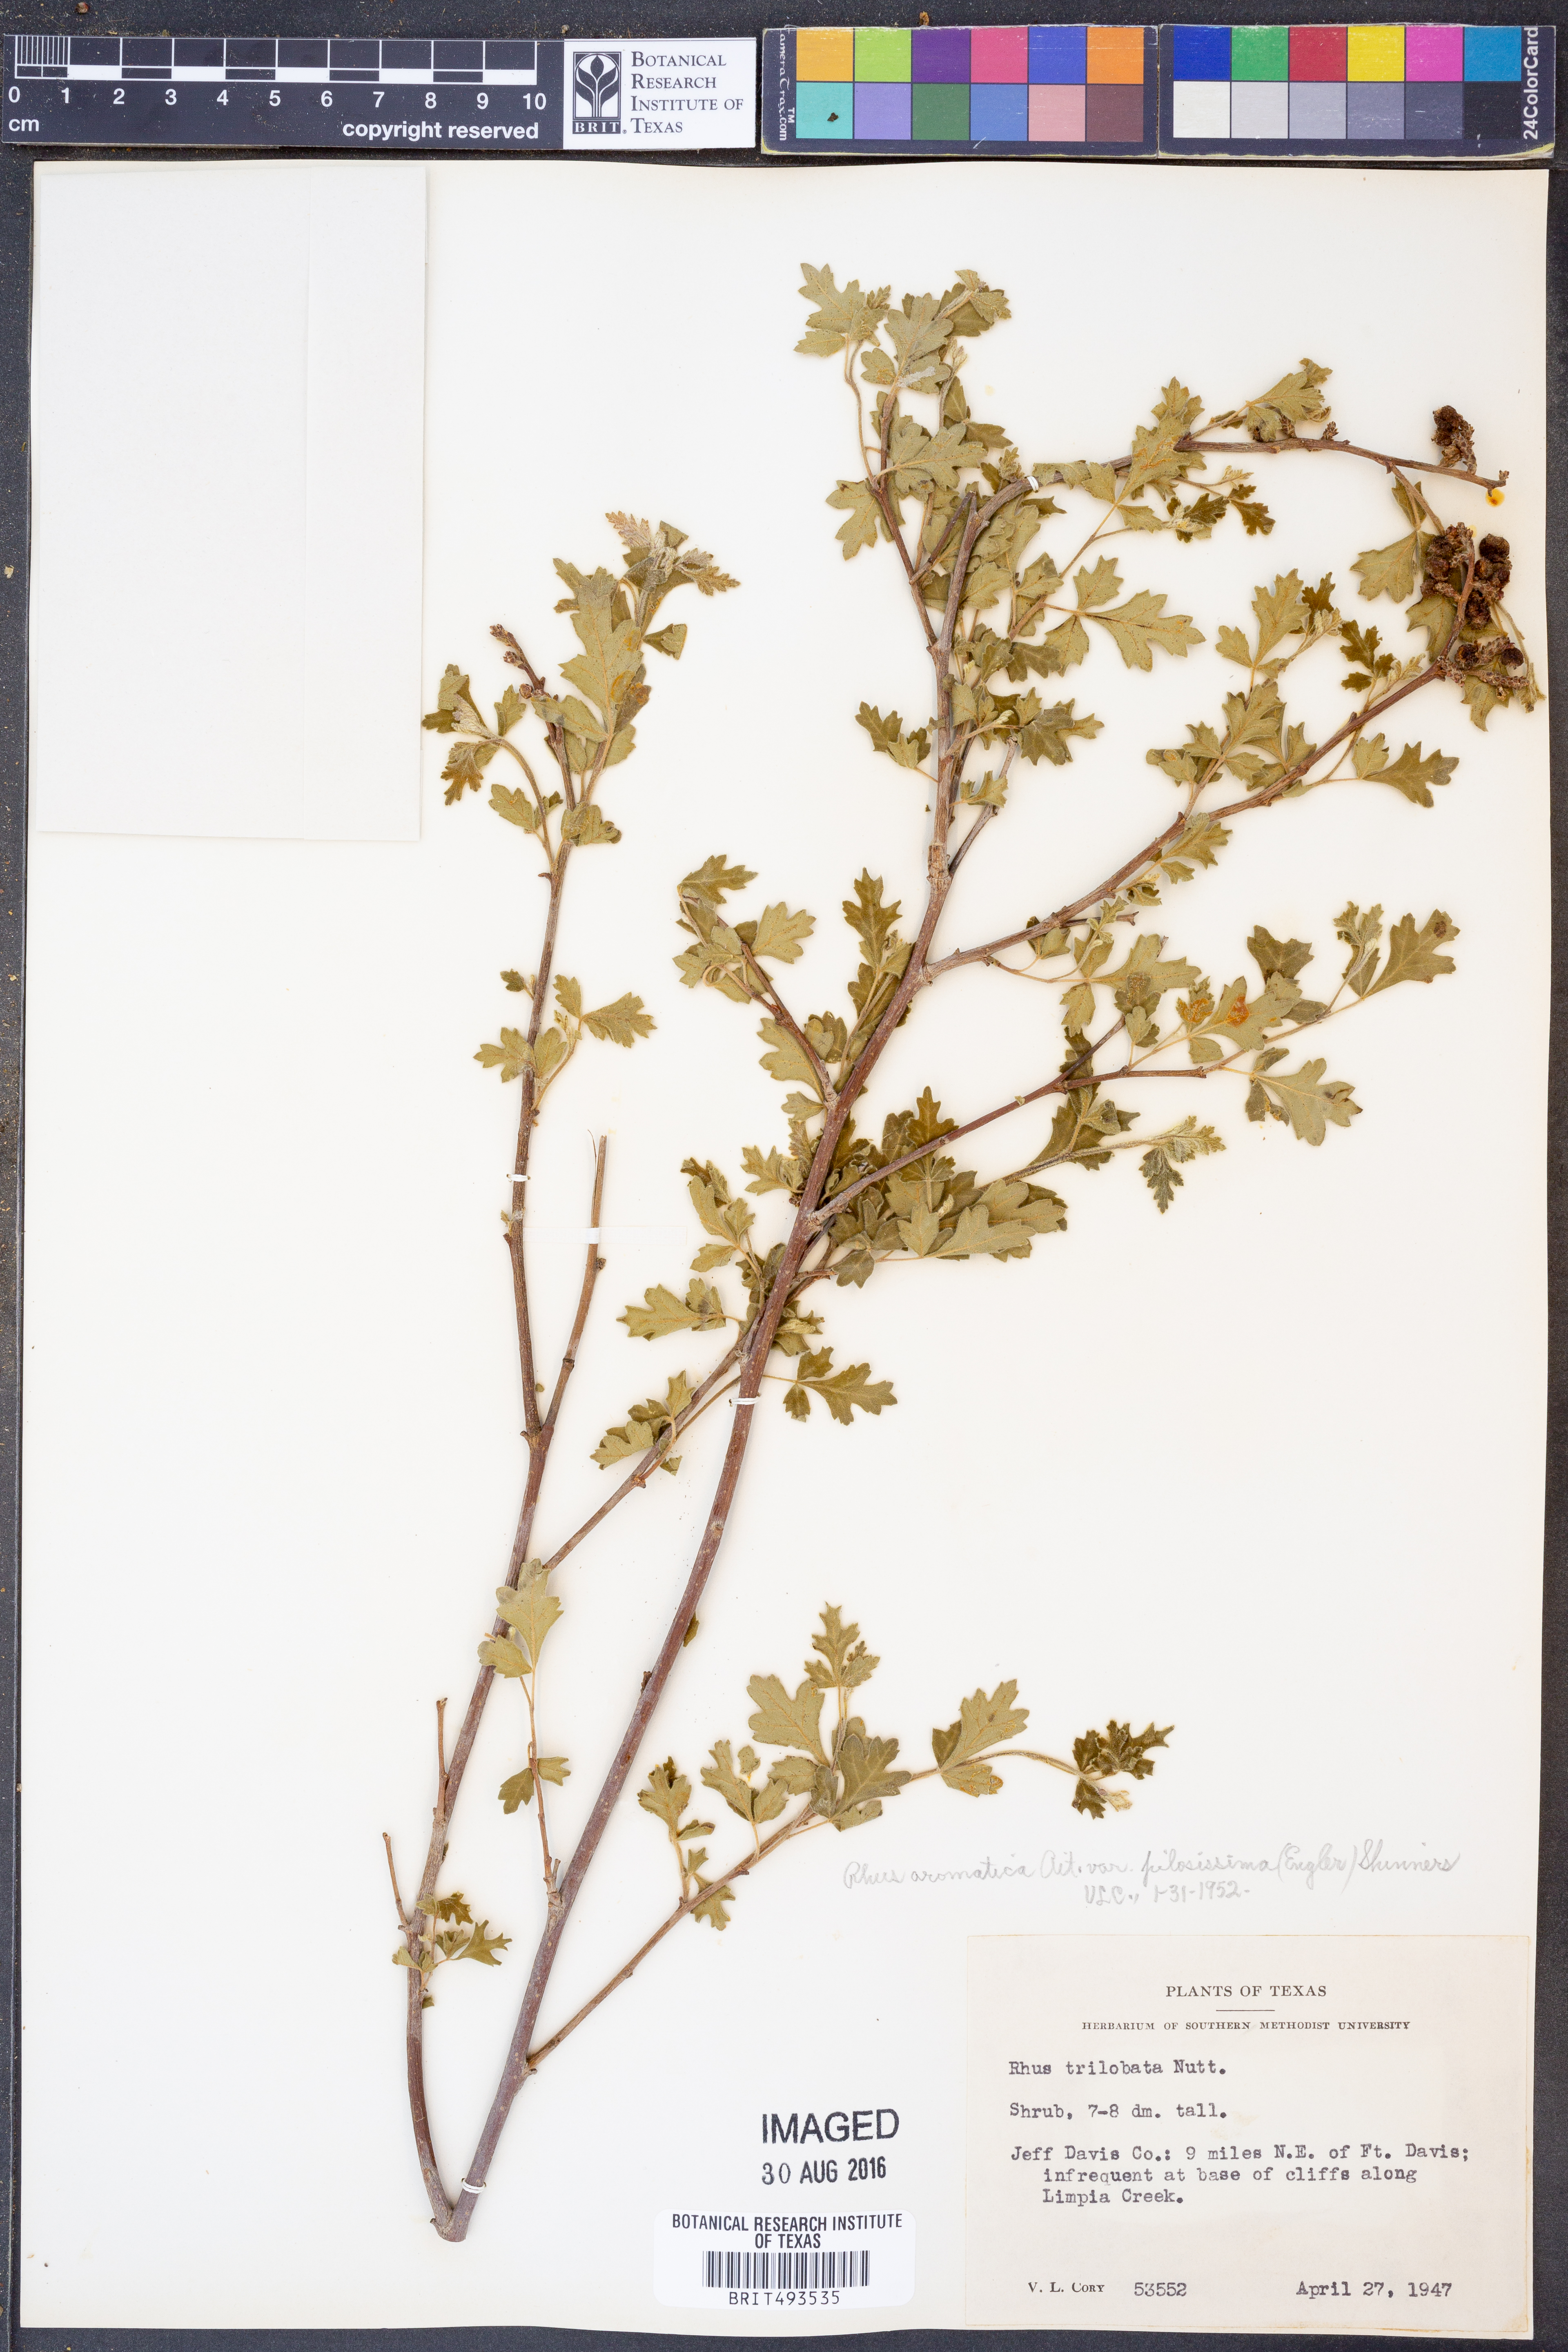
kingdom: Plantae
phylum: Tracheophyta
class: Magnoliopsida
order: Sapindales
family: Anacardiaceae
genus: Rhus
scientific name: Rhus trilobata
